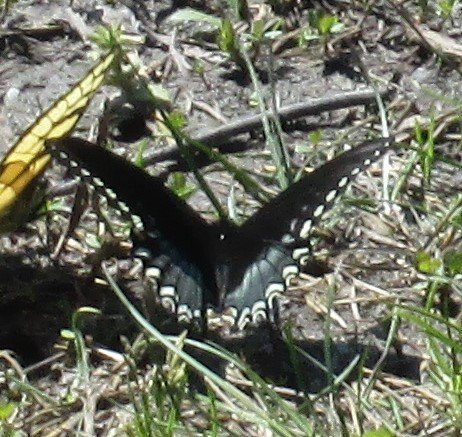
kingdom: Animalia
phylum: Arthropoda
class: Insecta
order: Lepidoptera
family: Papilionidae
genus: Pterourus
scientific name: Pterourus troilus
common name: Spicebush Swallowtail
